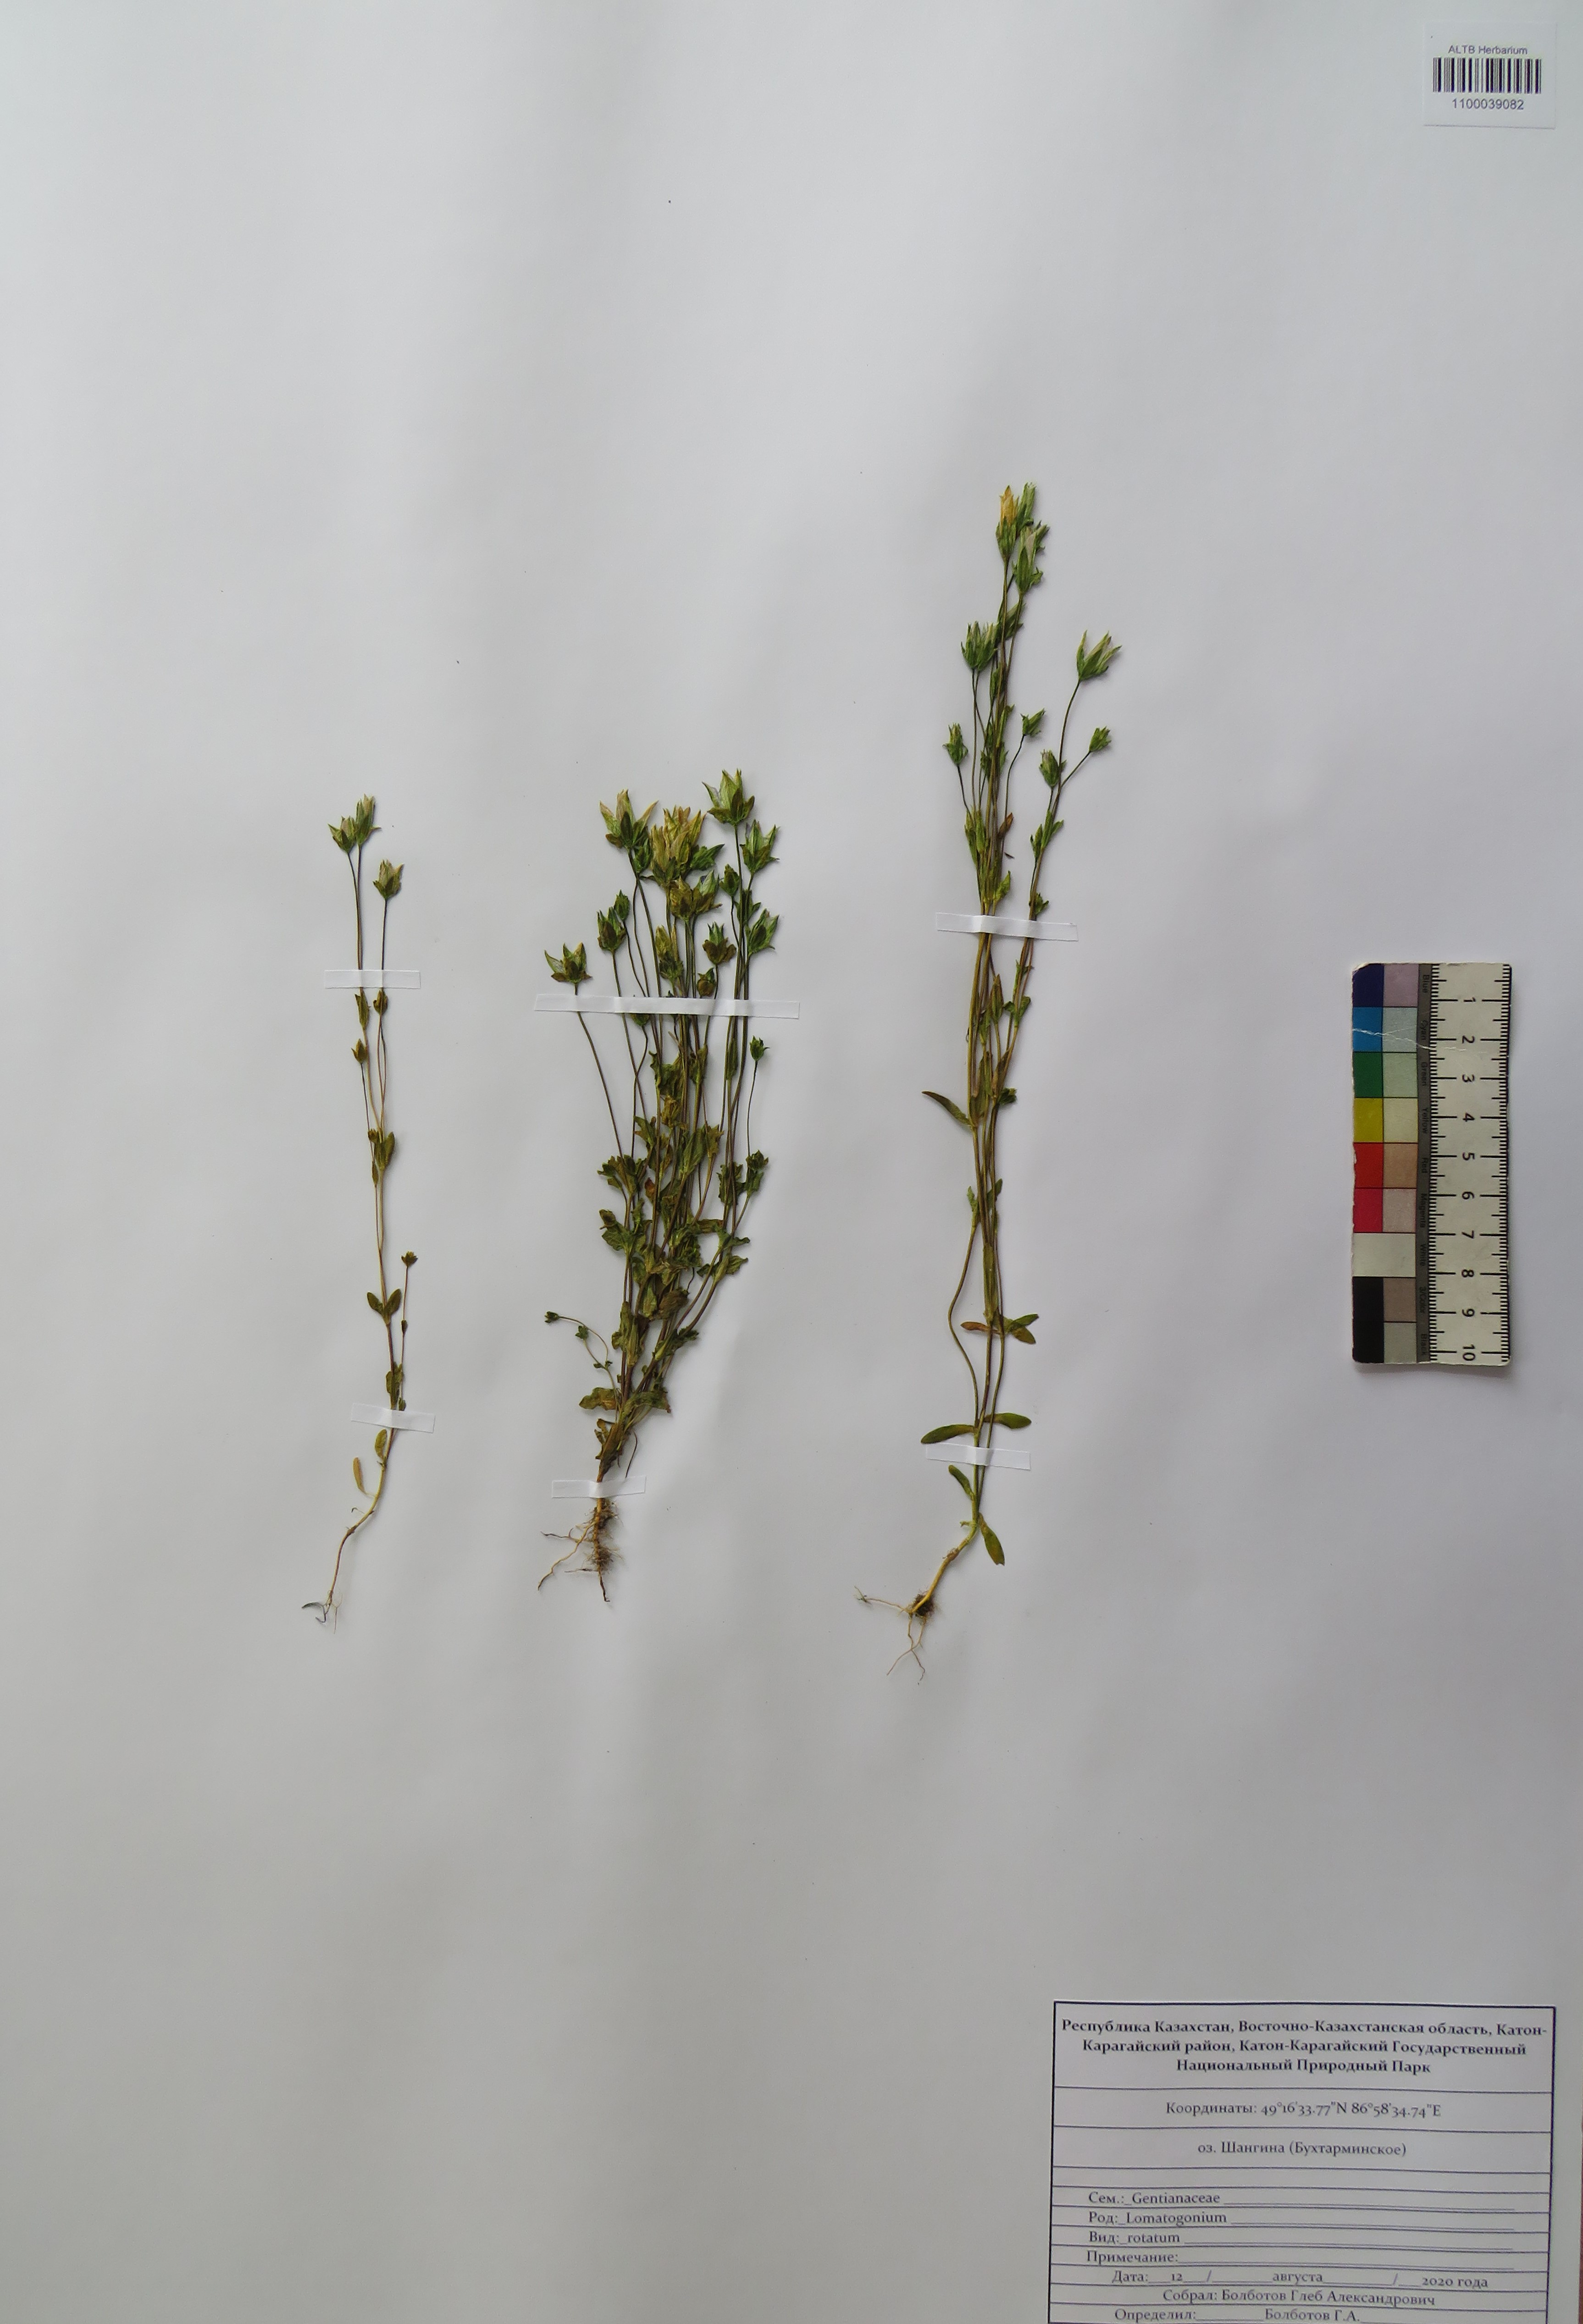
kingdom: Plantae
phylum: Tracheophyta
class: Magnoliopsida
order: Gentianales
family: Gentianaceae
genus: Lomatogonium
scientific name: Lomatogonium rotatum
